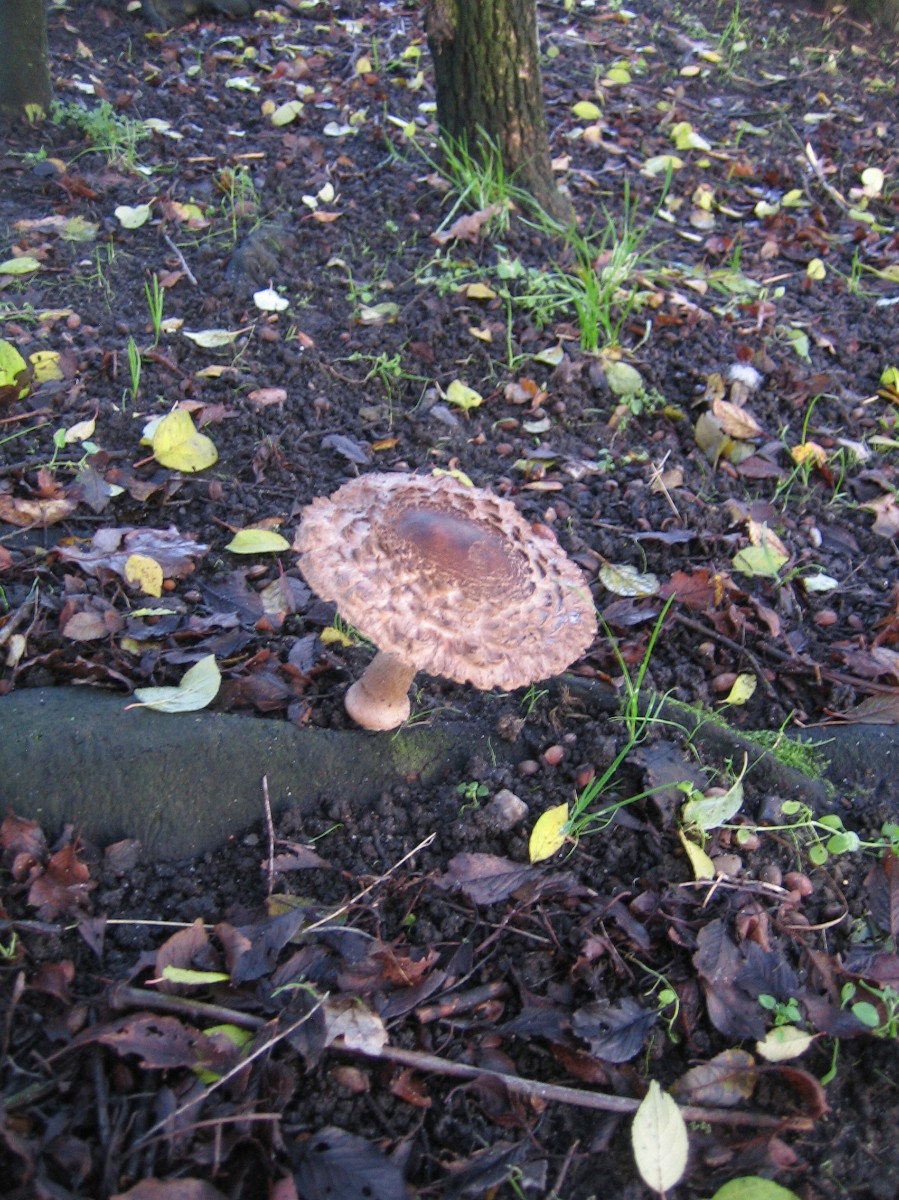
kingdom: Fungi
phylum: Basidiomycota
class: Agaricomycetes
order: Agaricales
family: Agaricaceae
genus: Chlorophyllum
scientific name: Chlorophyllum olivieri
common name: almindelig rabarberhat
